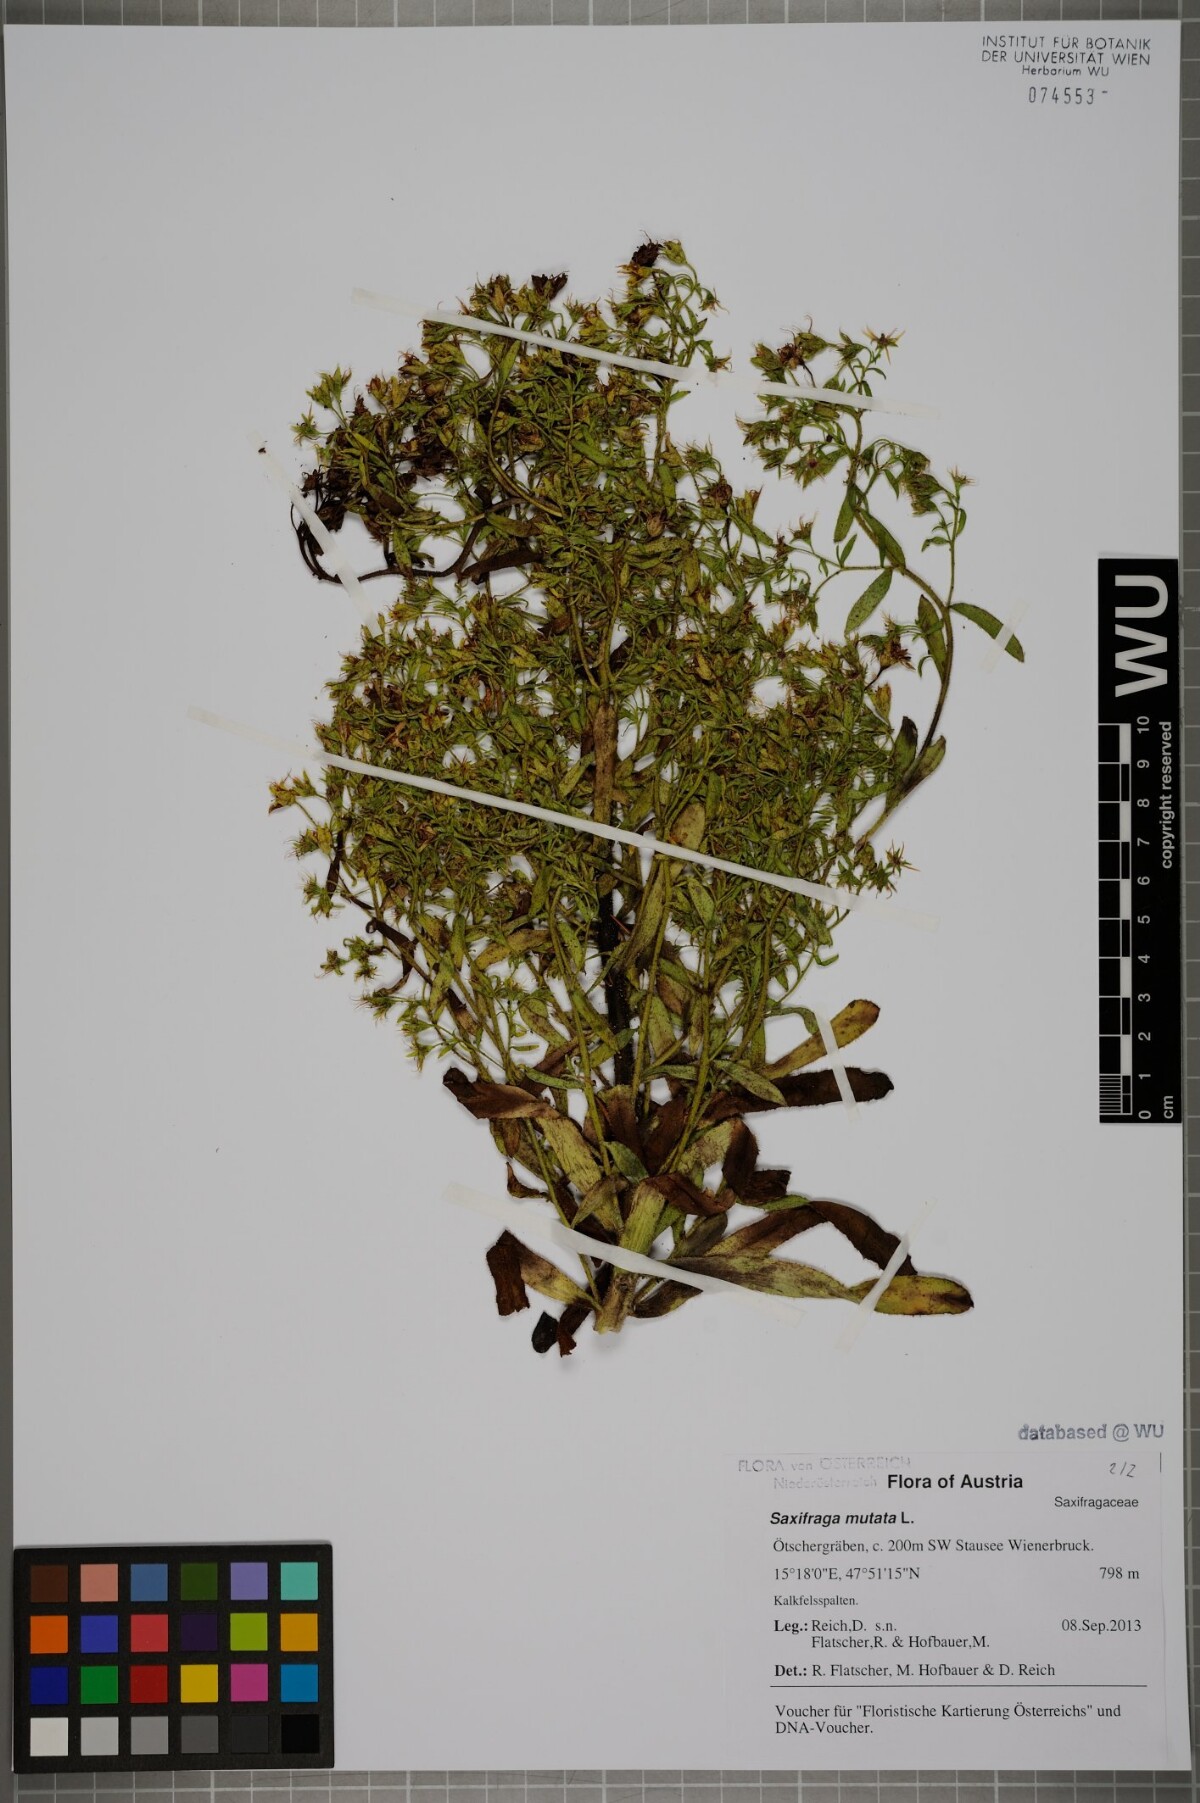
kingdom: Plantae
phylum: Tracheophyta
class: Magnoliopsida
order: Saxifragales
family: Saxifragaceae
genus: Saxifraga
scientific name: Saxifraga mutata
